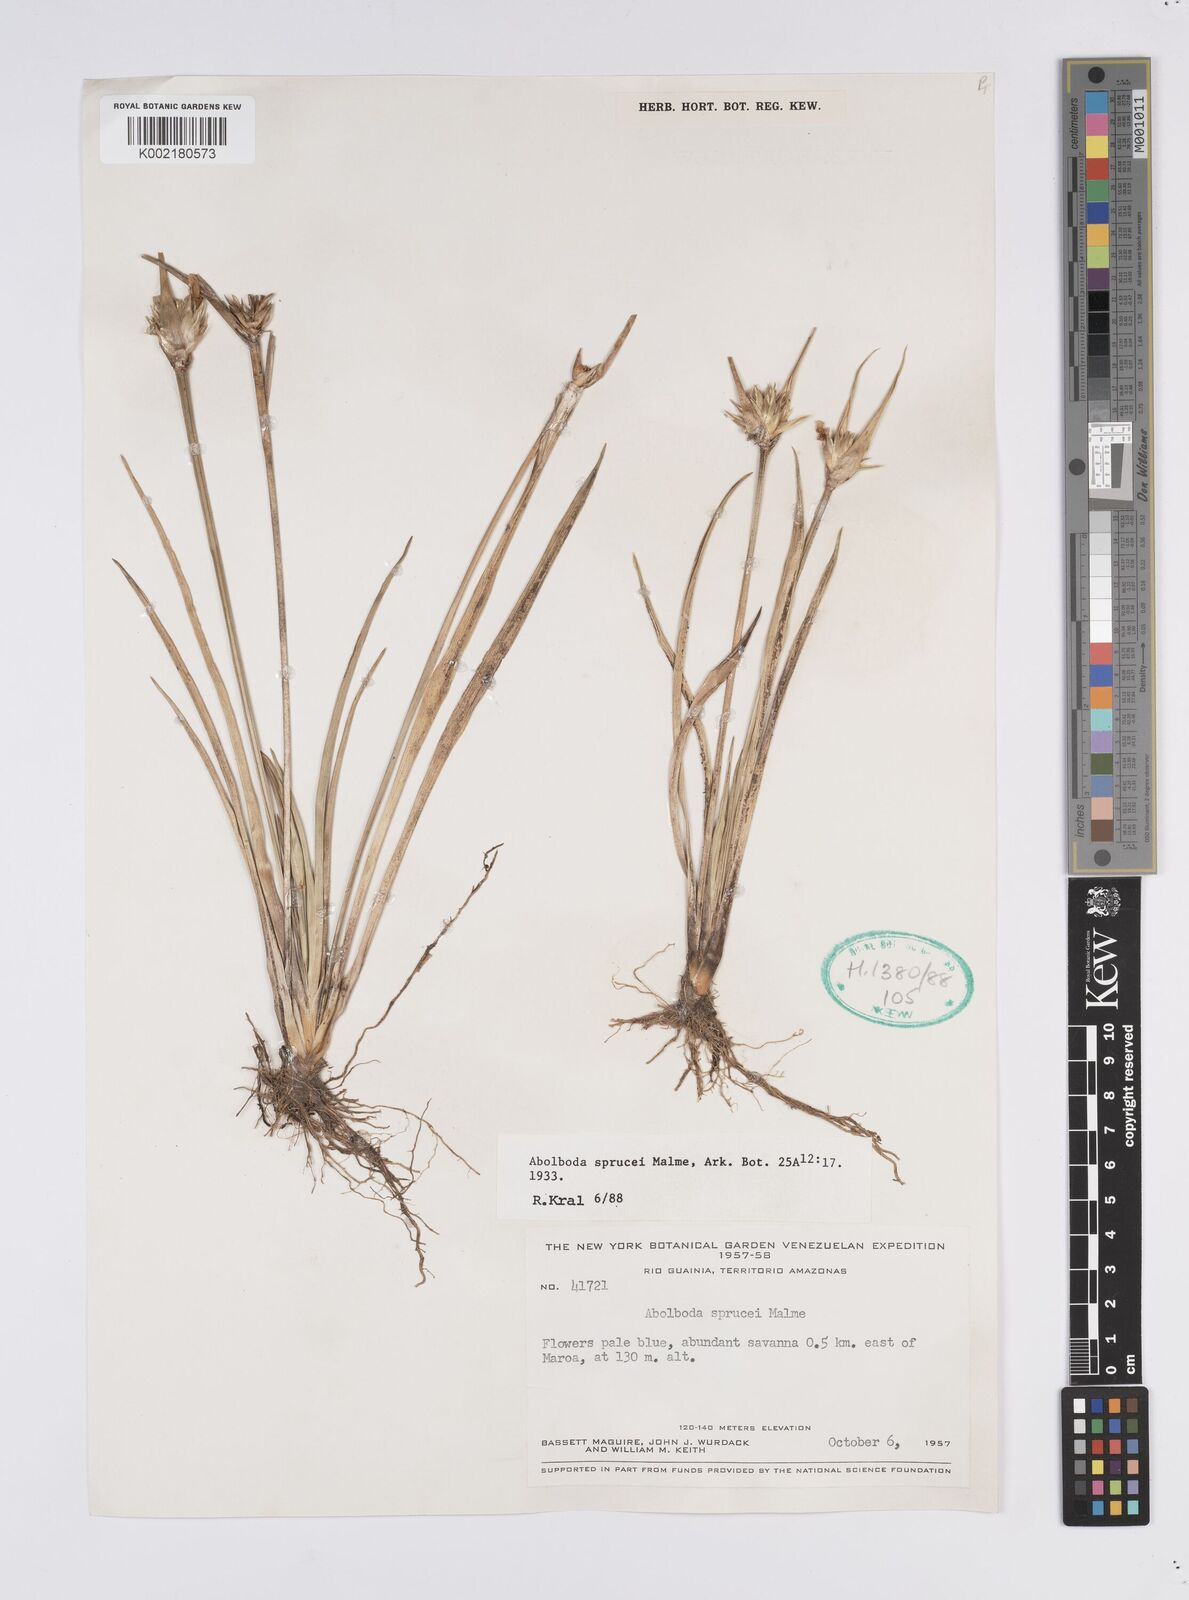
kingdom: Plantae
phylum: Tracheophyta
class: Liliopsida
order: Poales
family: Xyridaceae
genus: Abolboda
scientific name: Abolboda sprucei
